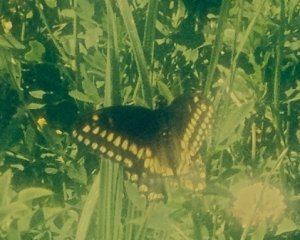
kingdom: Animalia
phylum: Arthropoda
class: Insecta
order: Lepidoptera
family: Papilionidae
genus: Papilio
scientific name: Papilio polyxenes
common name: Black Swallowtail
